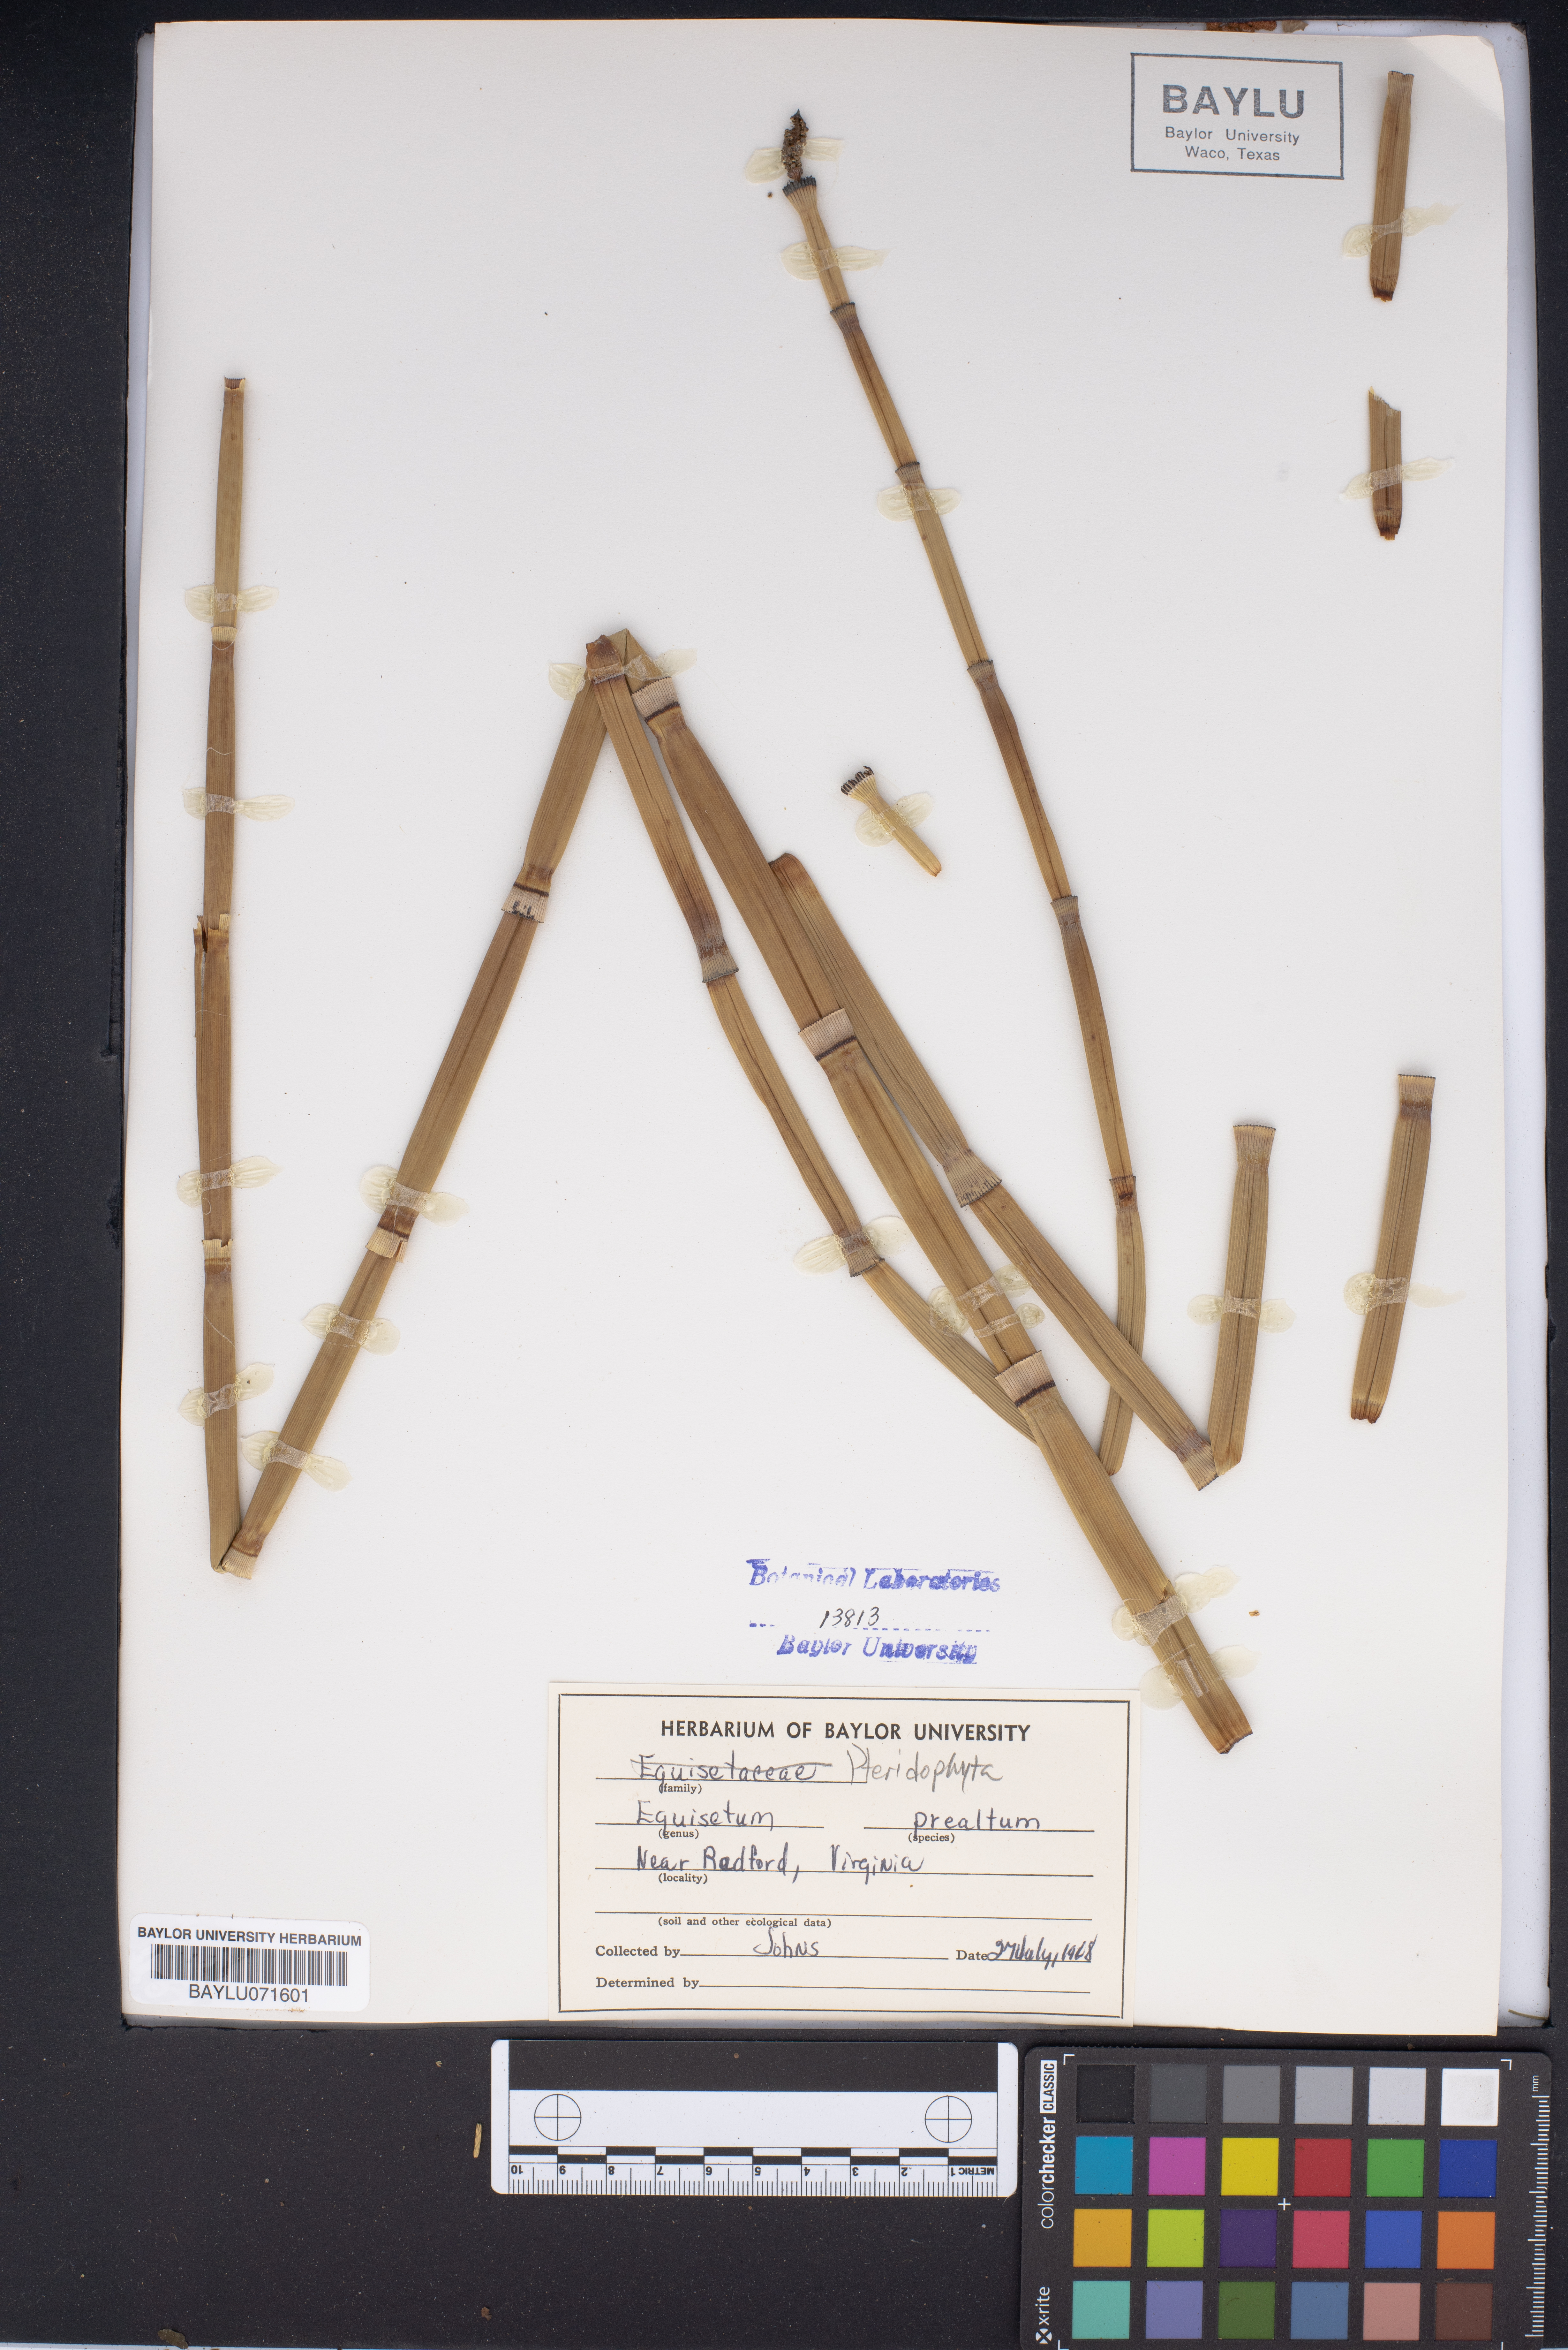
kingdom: Plantae
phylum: Tracheophyta
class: Polypodiopsida
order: Equisetales
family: Equisetaceae
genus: Equisetum
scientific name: Equisetum praealtum
